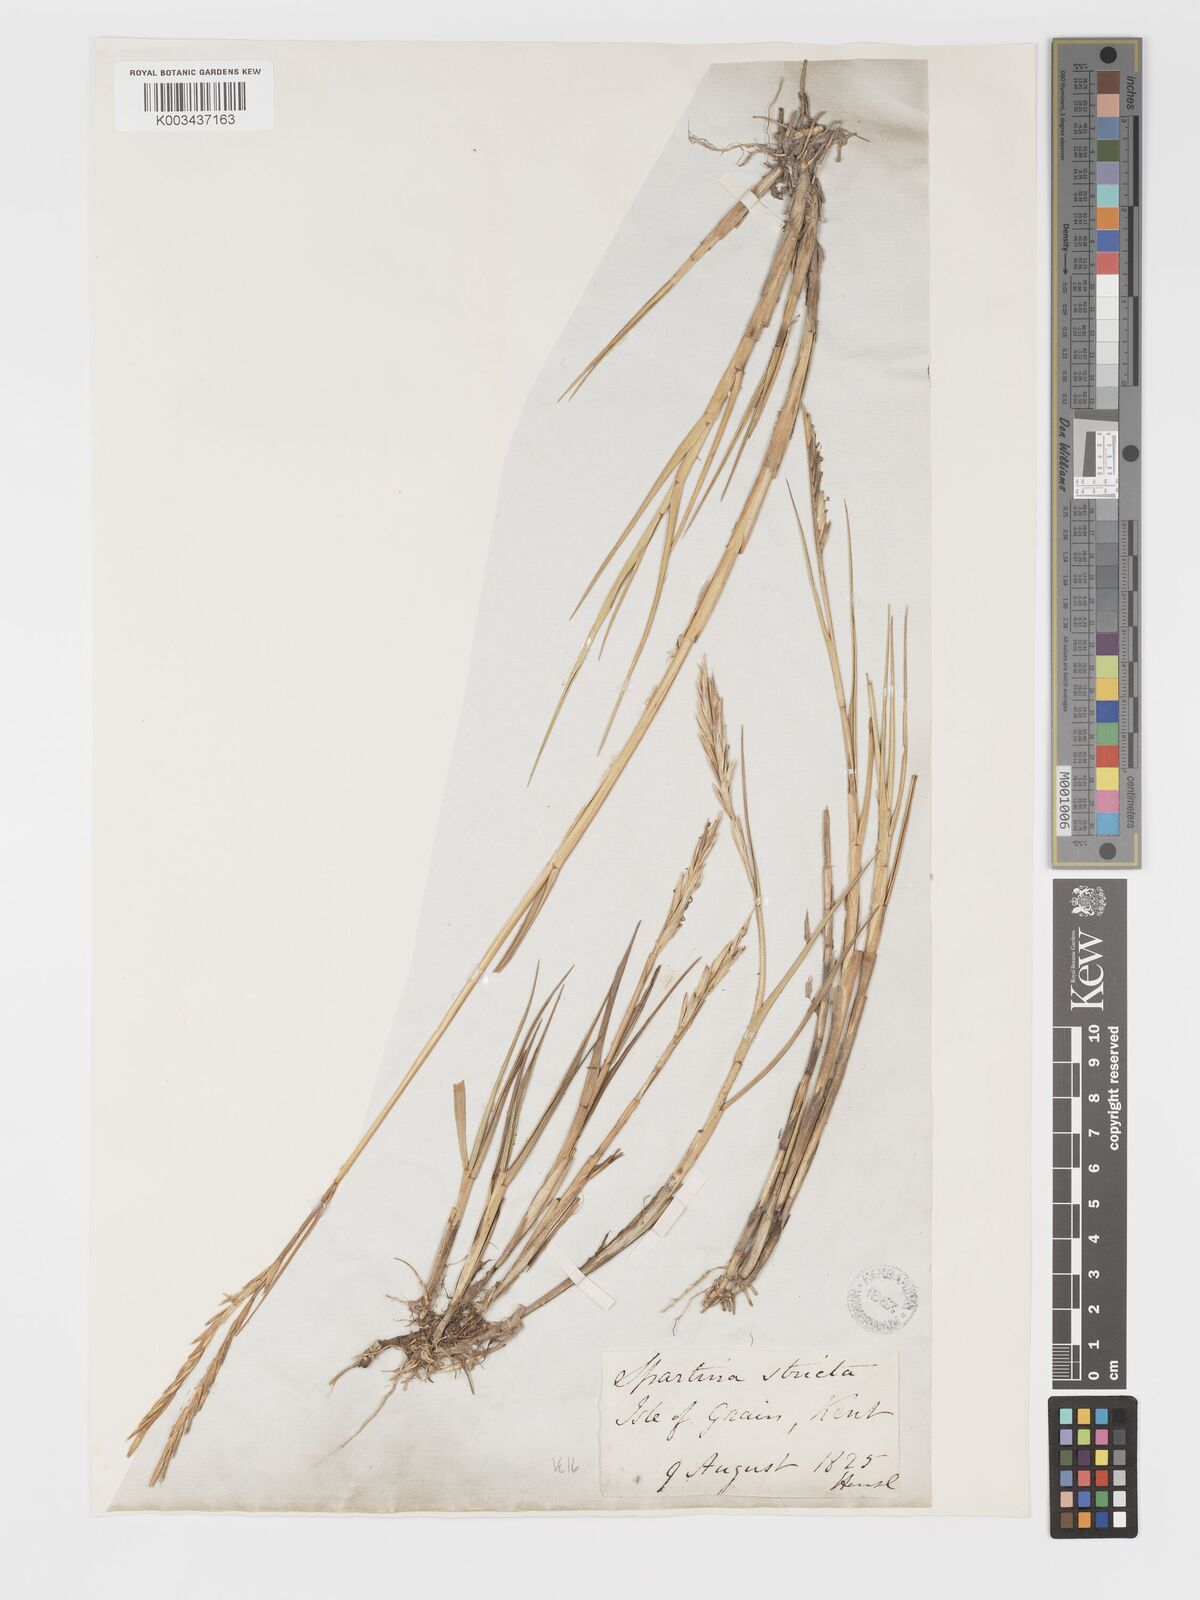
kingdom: Plantae
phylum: Tracheophyta
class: Liliopsida
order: Poales
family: Poaceae
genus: Sporobolus
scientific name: Sporobolus maritimus
